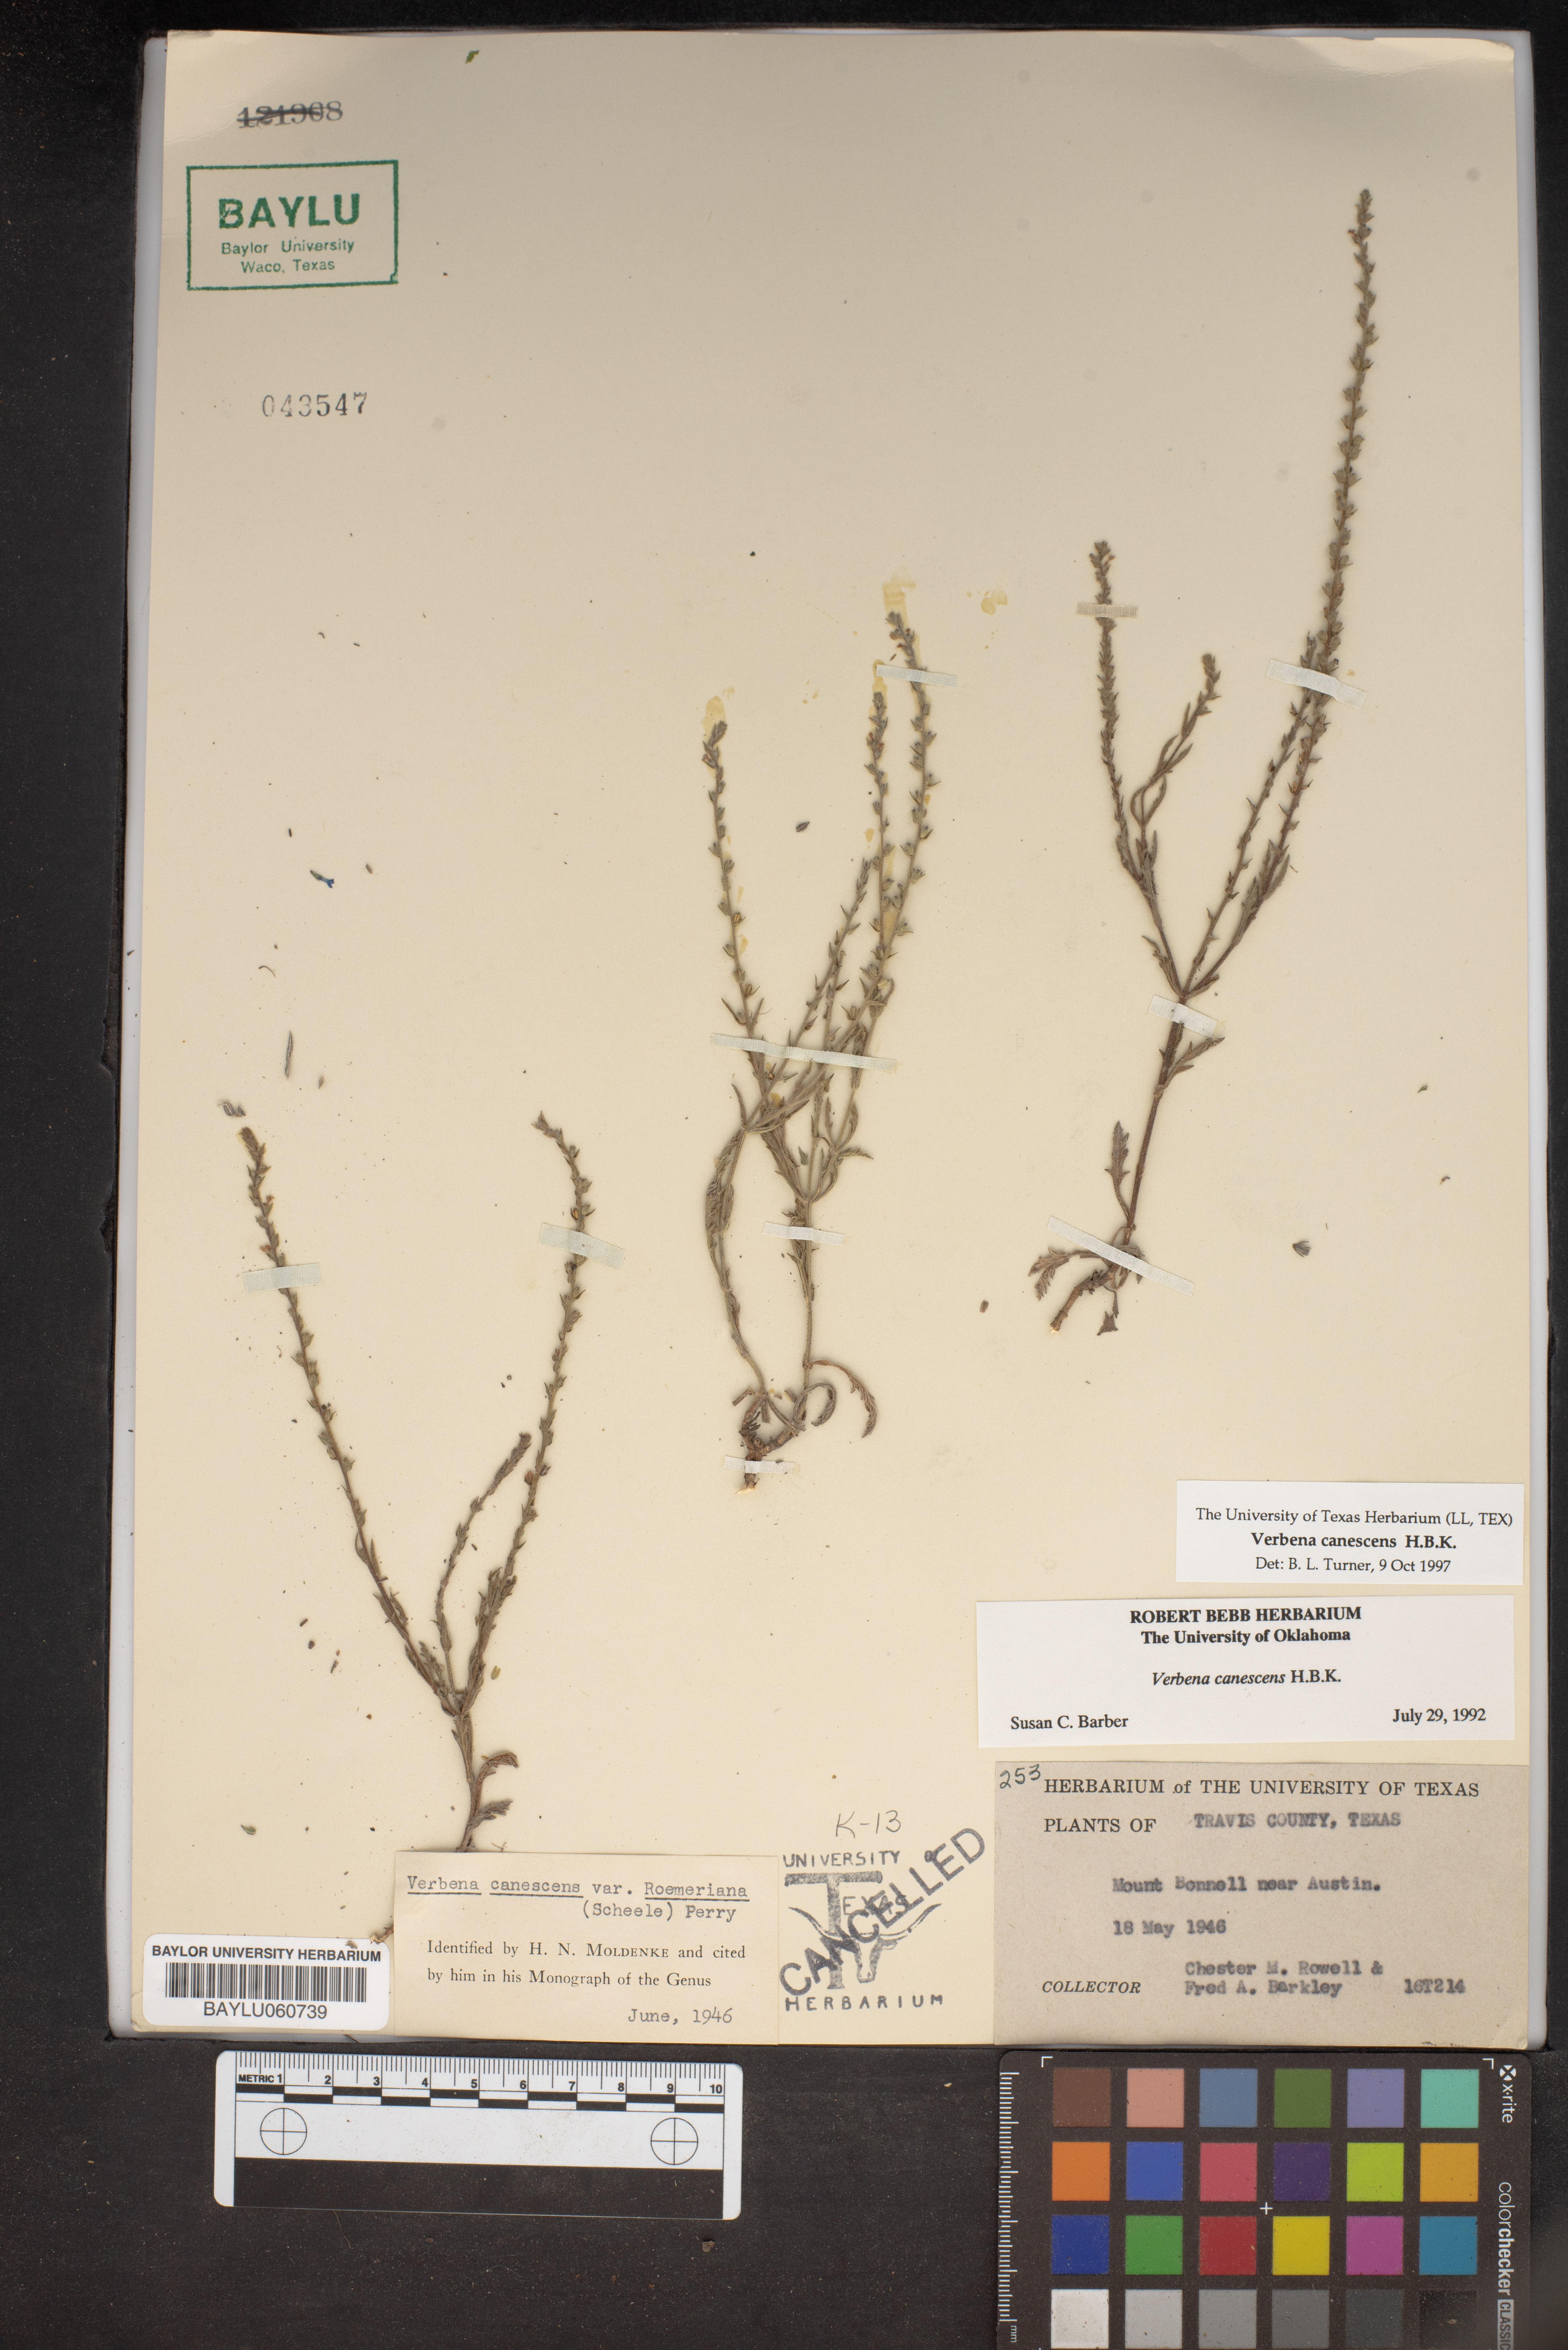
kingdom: Plantae
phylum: Tracheophyta
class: Magnoliopsida
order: Lamiales
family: Verbenaceae
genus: Verbena
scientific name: Verbena canescens
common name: Gray vervain
